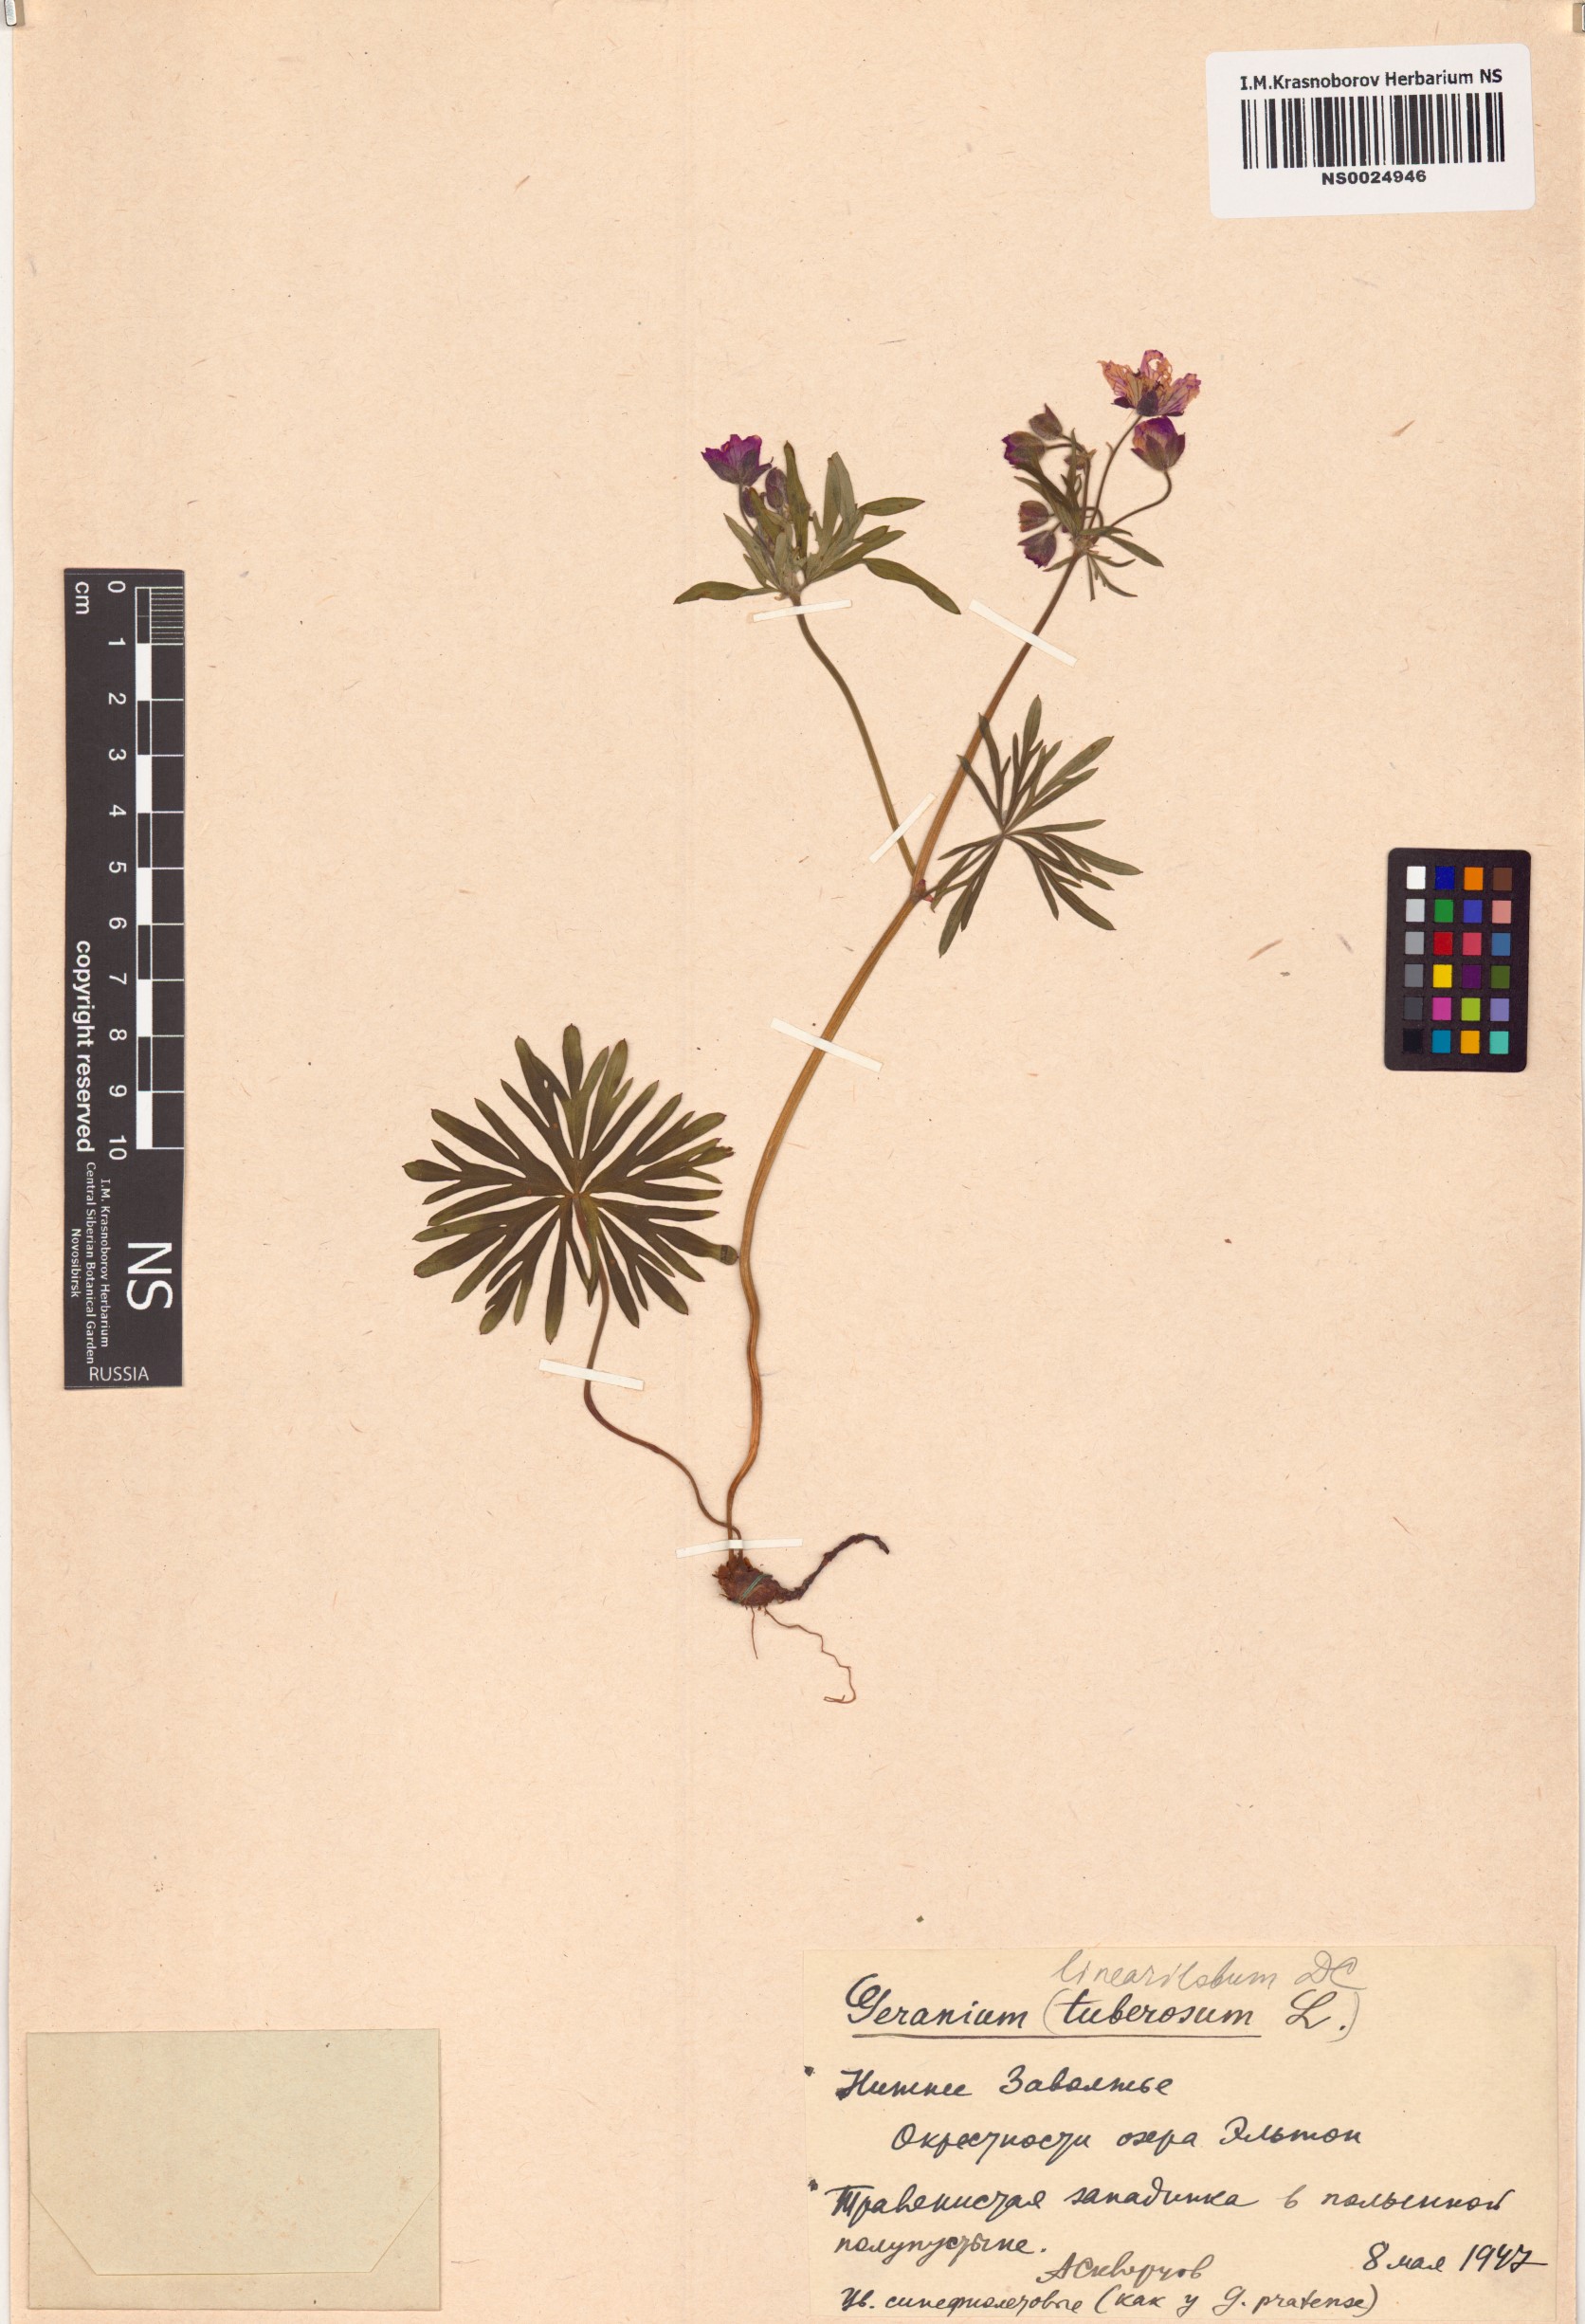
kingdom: Plantae
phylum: Tracheophyta
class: Magnoliopsida
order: Geraniales
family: Geraniaceae
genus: Geranium
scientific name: Geranium linearilobum
